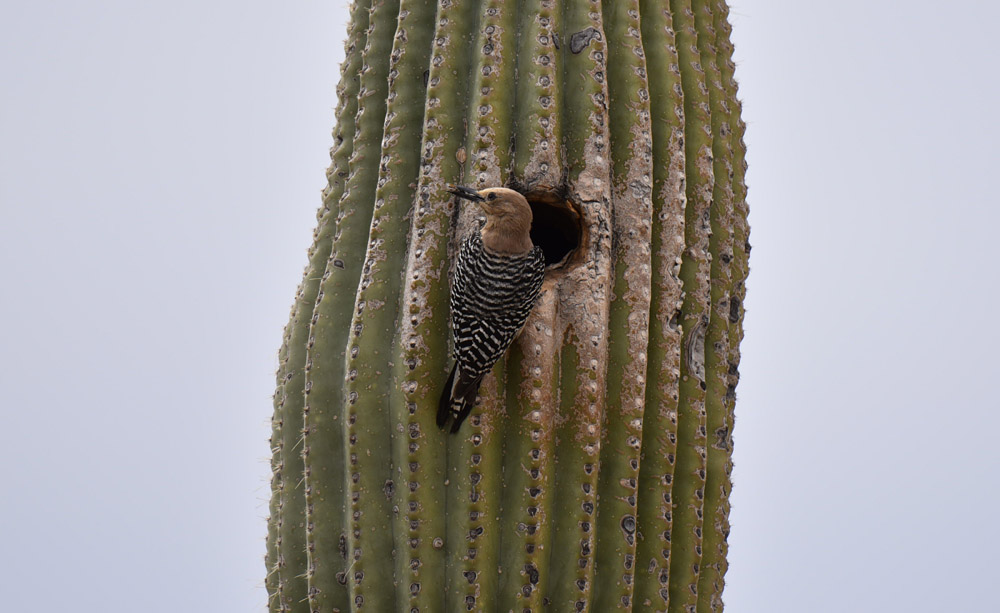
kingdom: Animalia
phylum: Chordata
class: Aves
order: Piciformes
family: Picidae
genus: Melanerpes
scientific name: Melanerpes uropygialis
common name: Gila woodpecker
